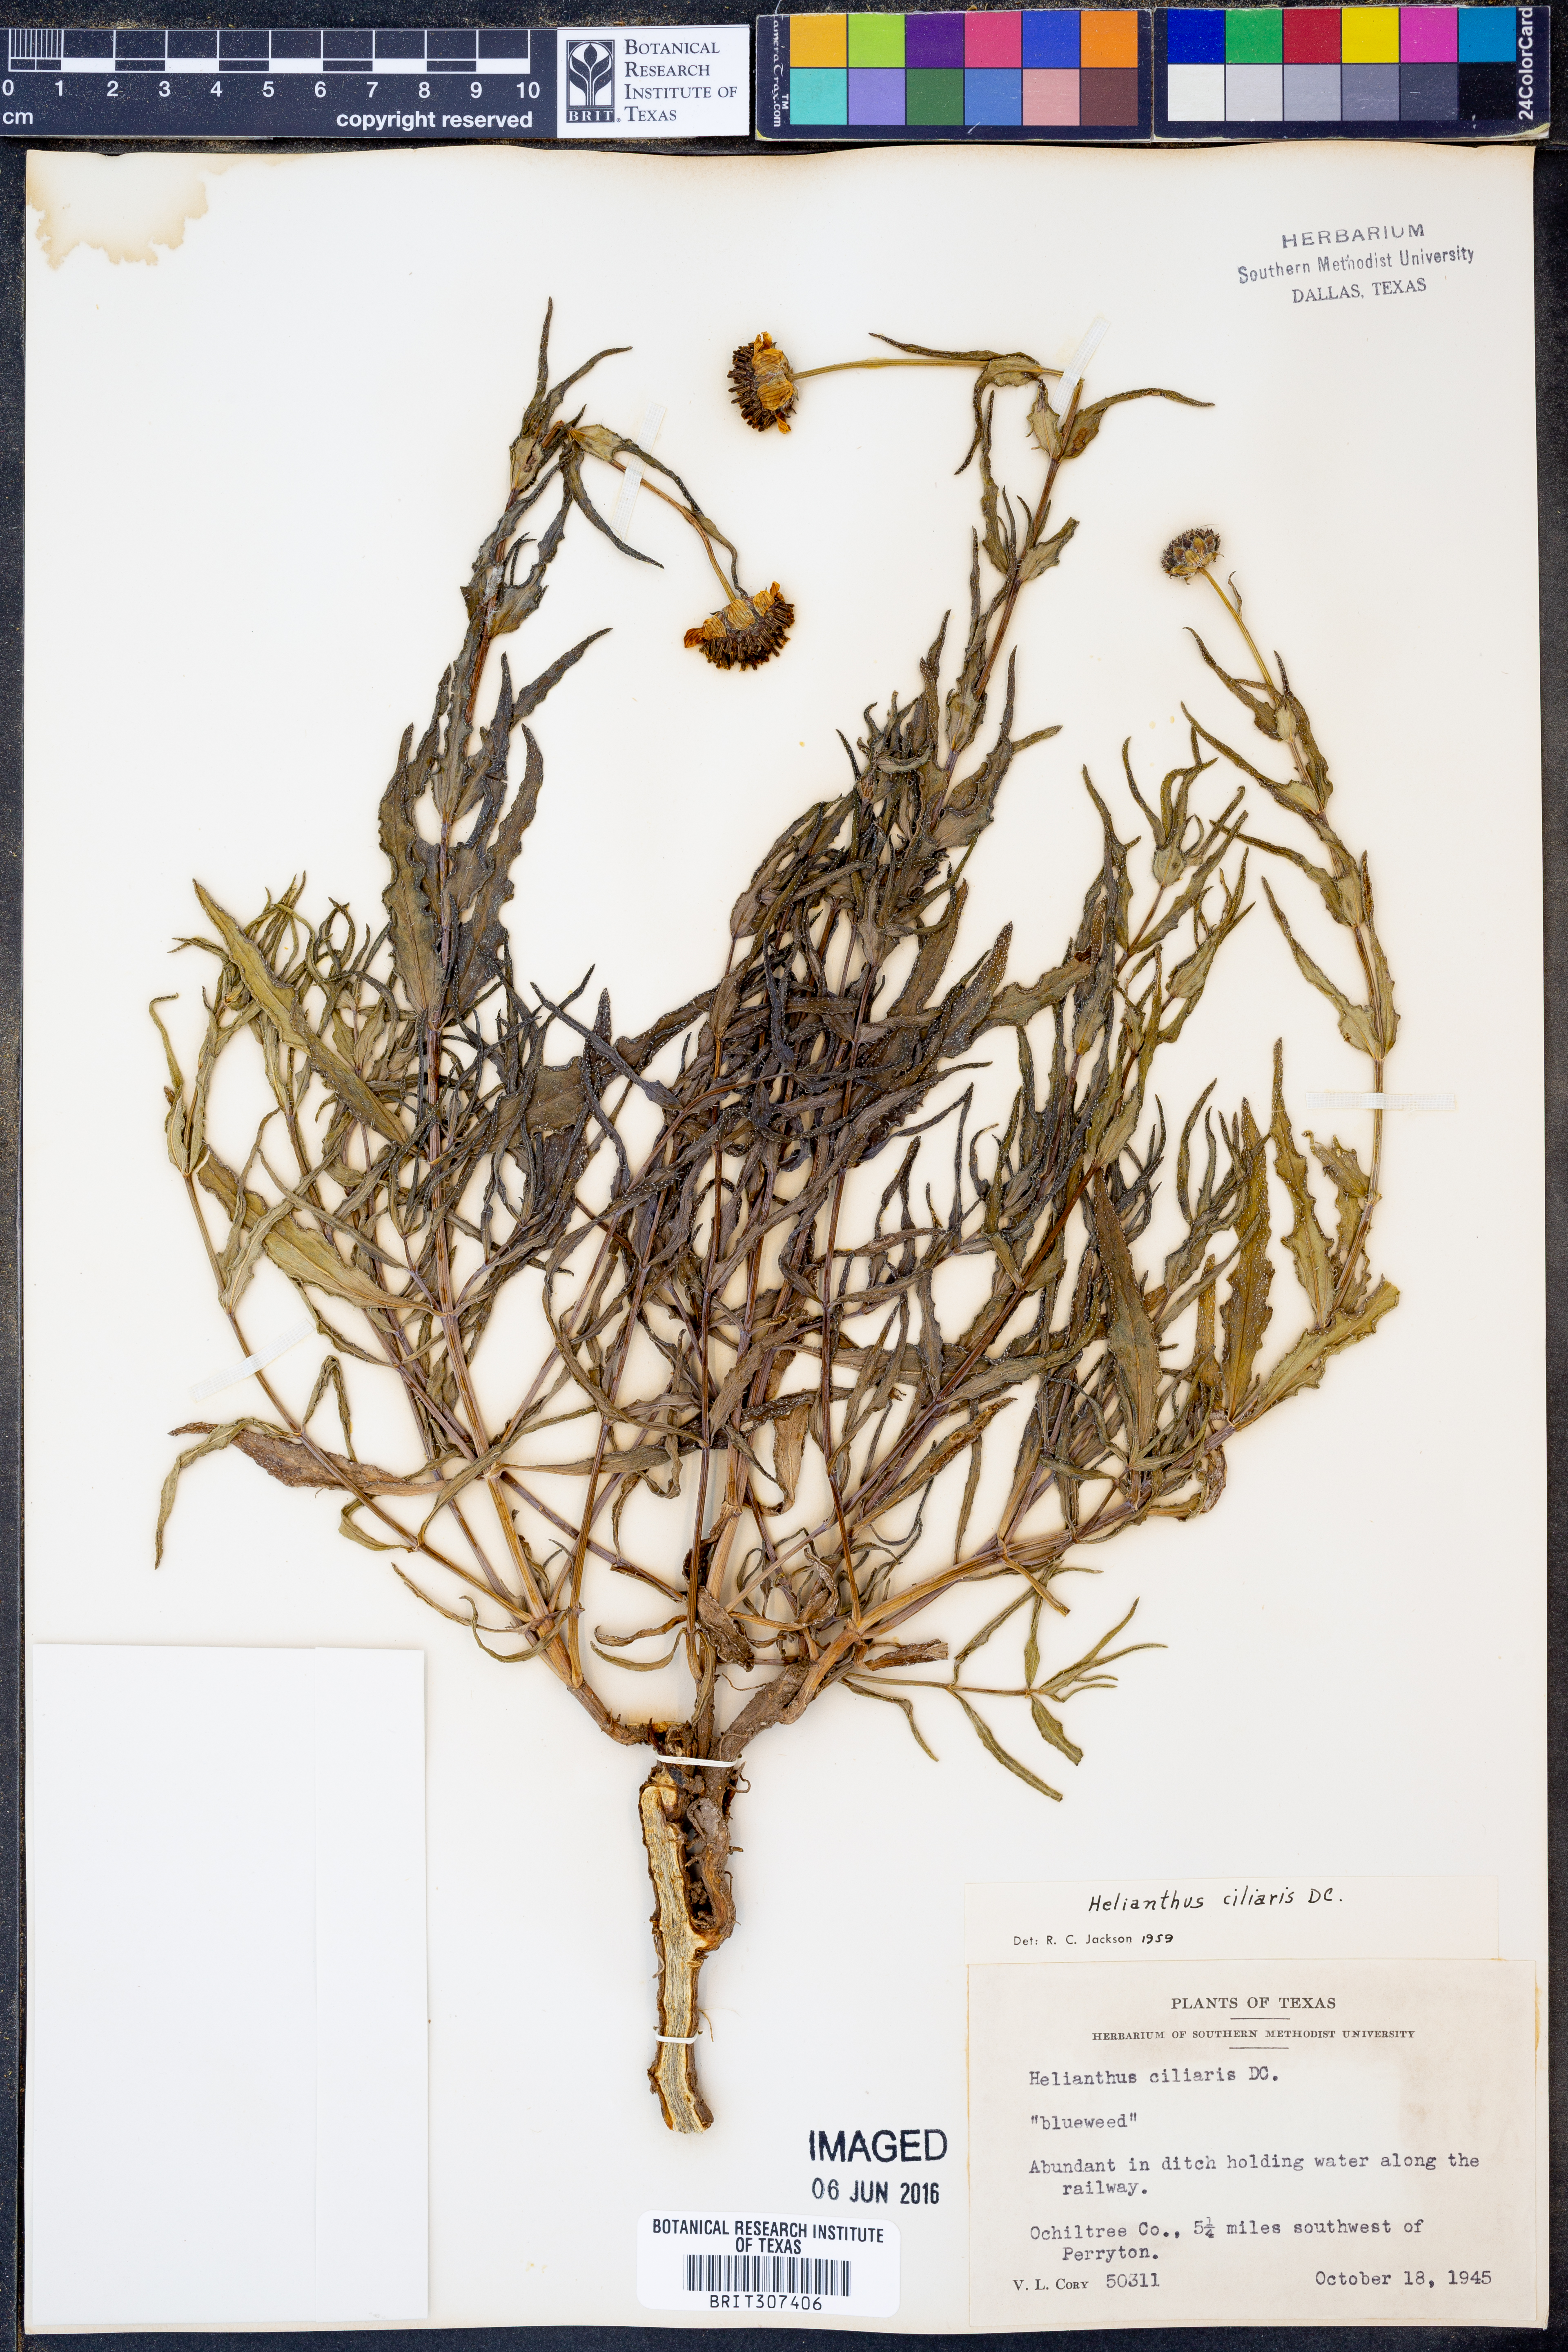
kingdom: Plantae
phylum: Tracheophyta
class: Magnoliopsida
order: Asterales
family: Asteraceae
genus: Helianthus
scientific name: Helianthus ciliaris
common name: Texas blueweed
